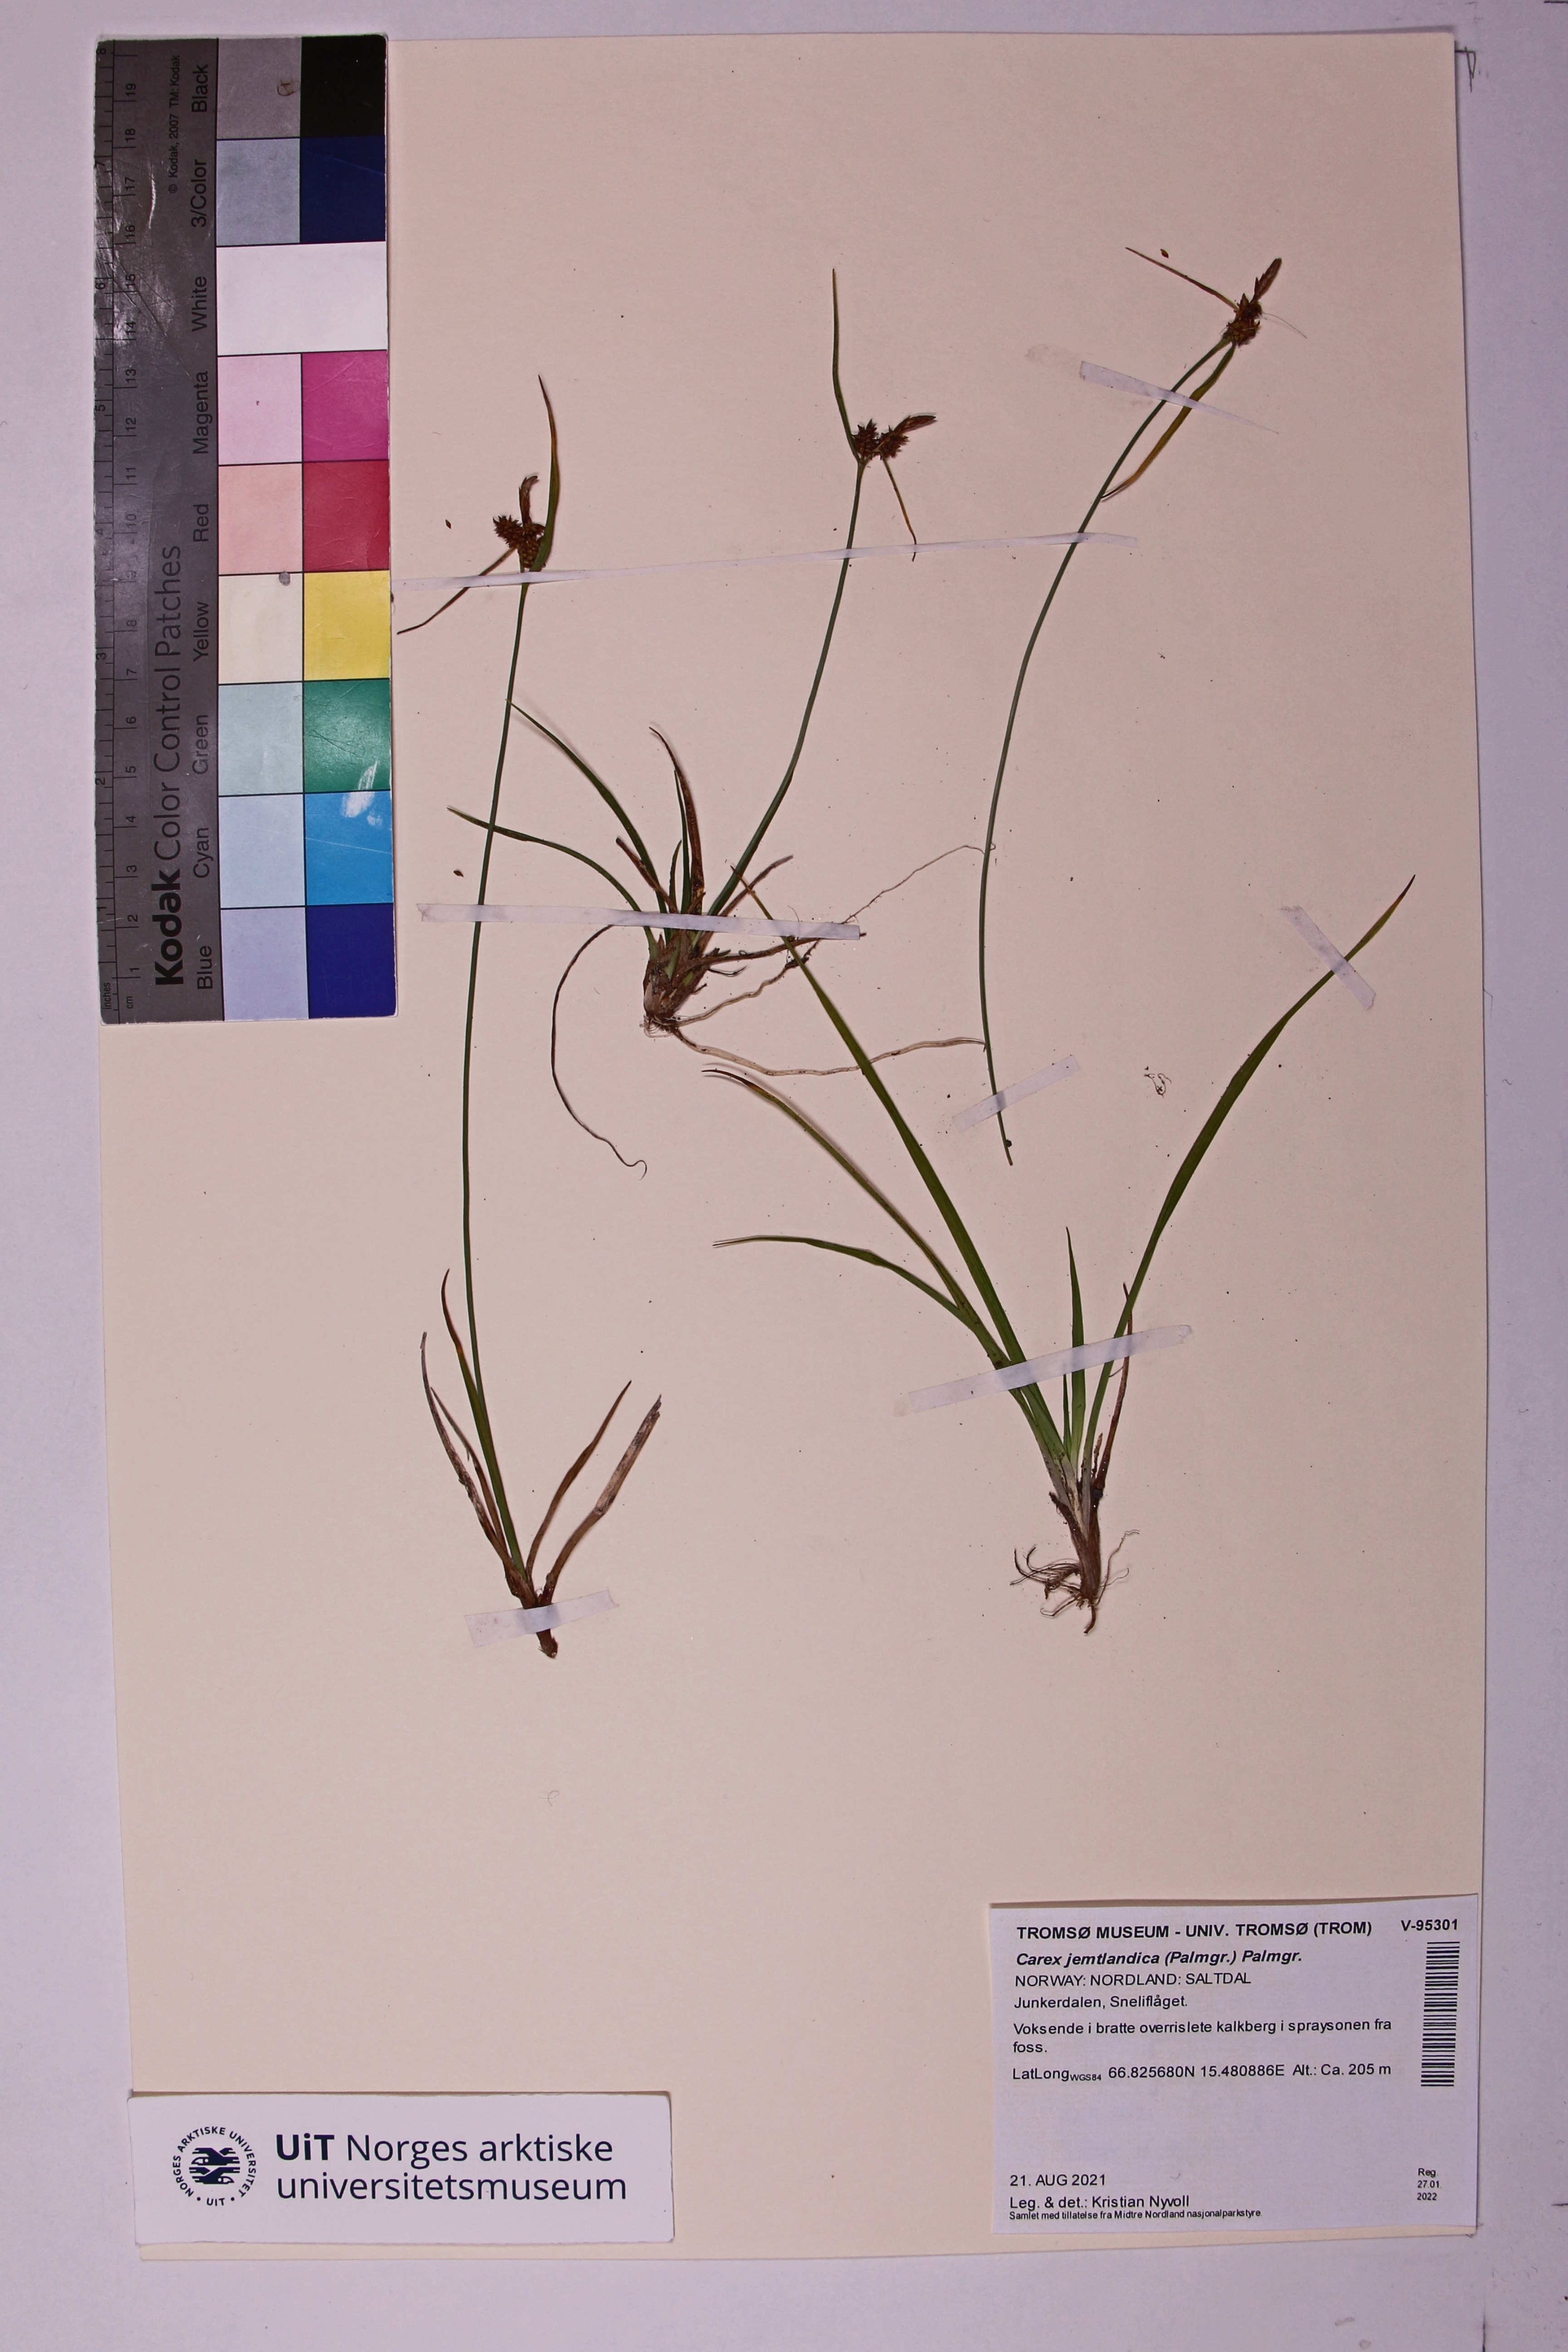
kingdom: Plantae
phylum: Tracheophyta
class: Liliopsida
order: Poales
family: Cyperaceae
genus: Carex
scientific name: Carex lepidocarpa
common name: Long-stalked yellow-sedge
